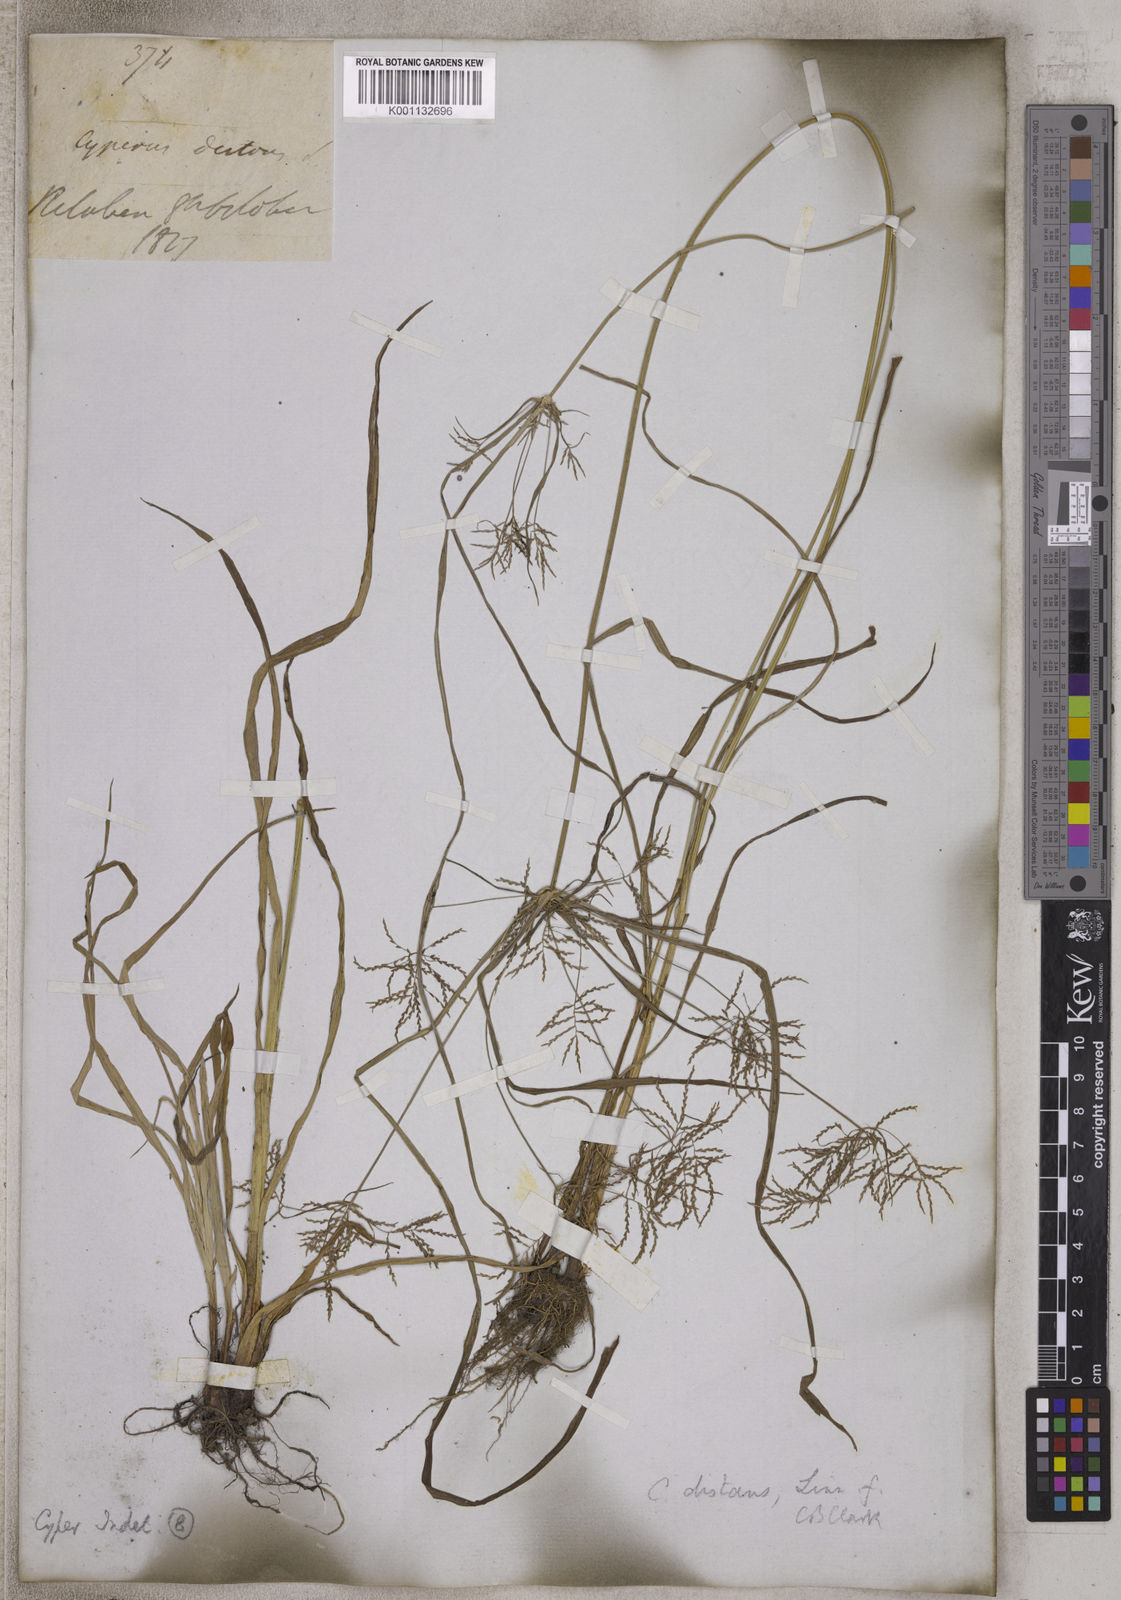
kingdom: Plantae
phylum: Tracheophyta
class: Liliopsida
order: Poales
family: Cyperaceae
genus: Cyperus
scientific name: Cyperus distans
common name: Slender cyperus
